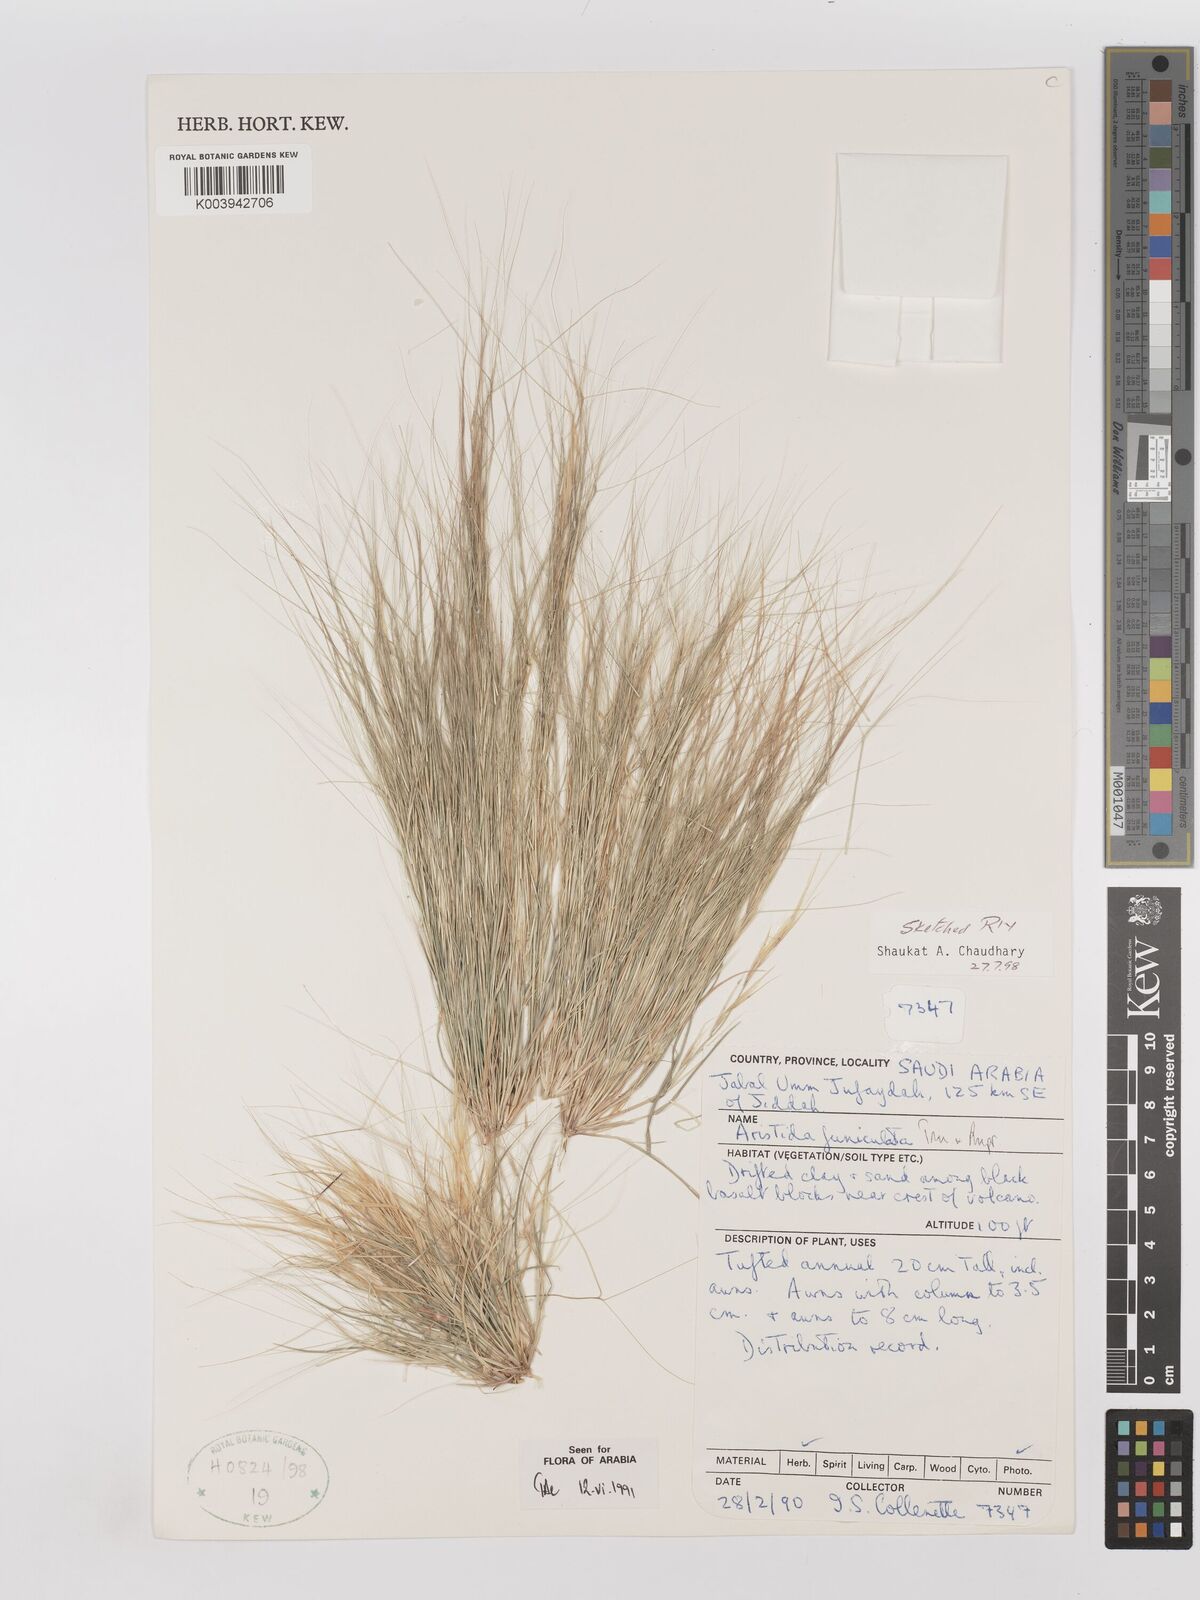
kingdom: Plantae
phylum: Tracheophyta
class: Liliopsida
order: Poales
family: Poaceae
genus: Aristida
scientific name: Aristida funiculata
